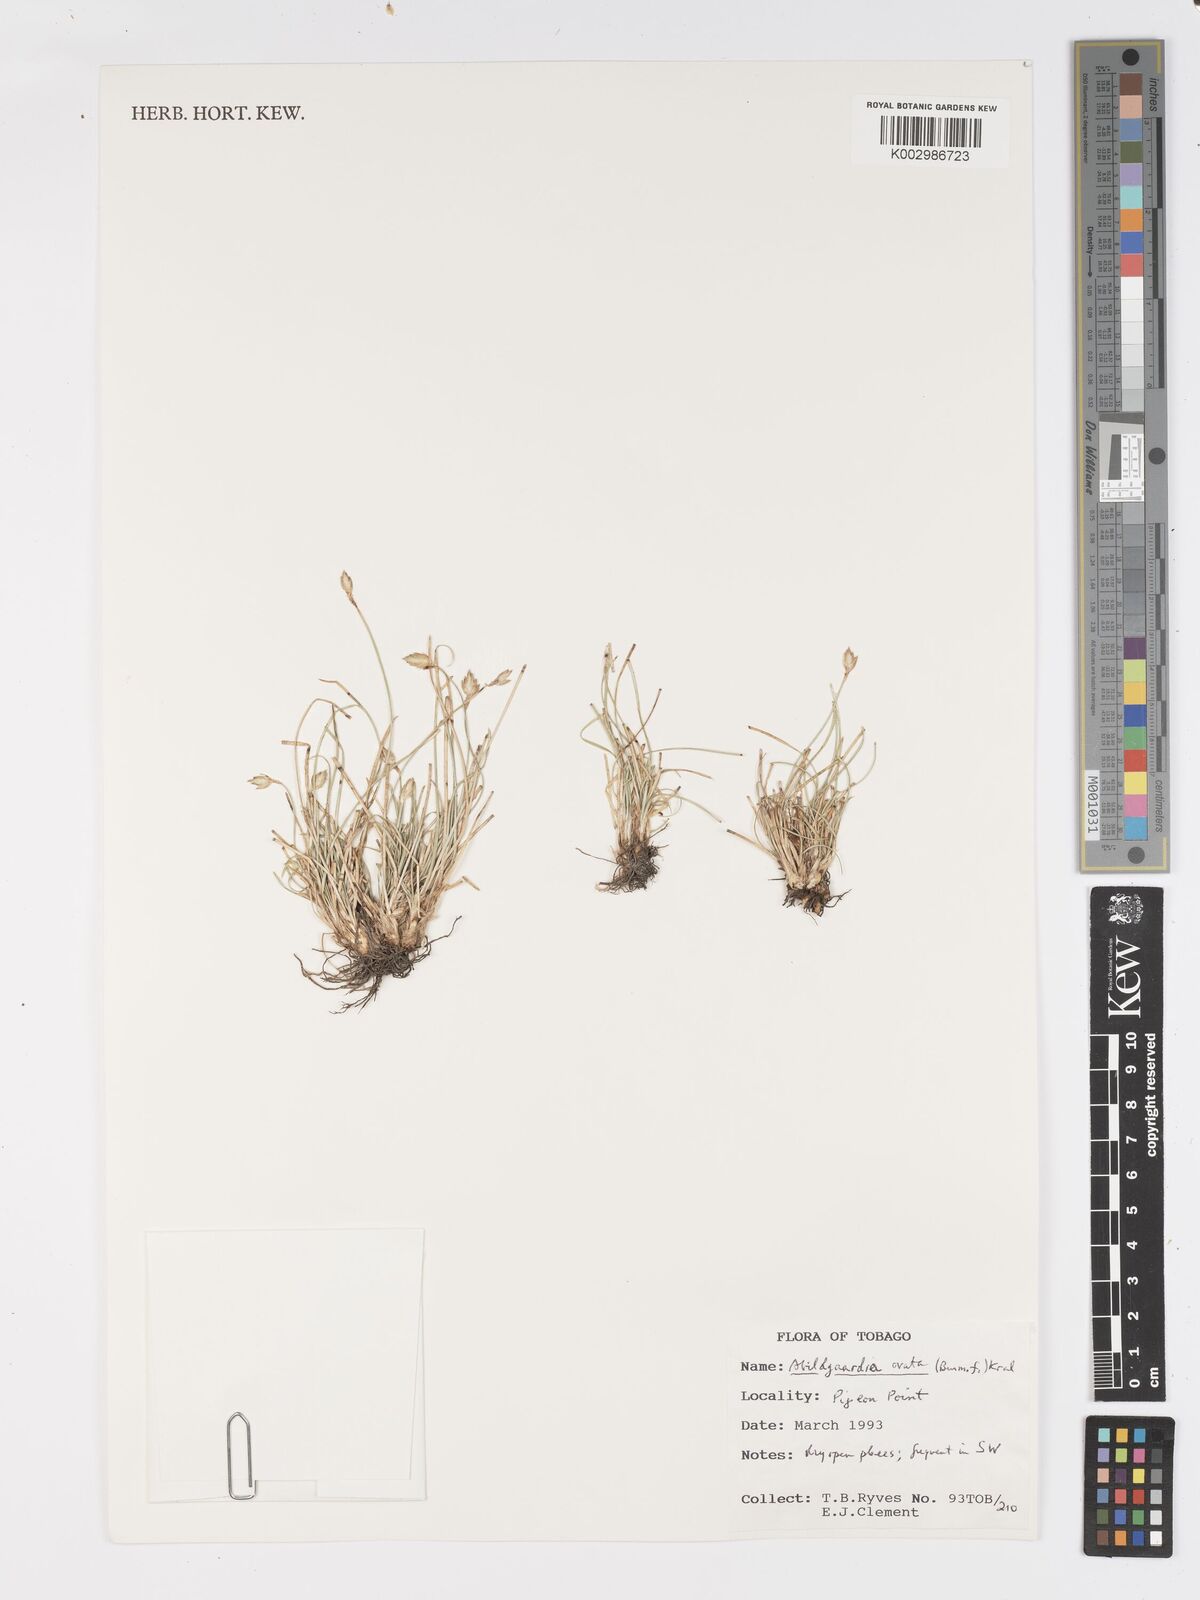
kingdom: Plantae
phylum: Tracheophyta
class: Liliopsida
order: Poales
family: Cyperaceae
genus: Fimbristylis
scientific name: Fimbristylis
